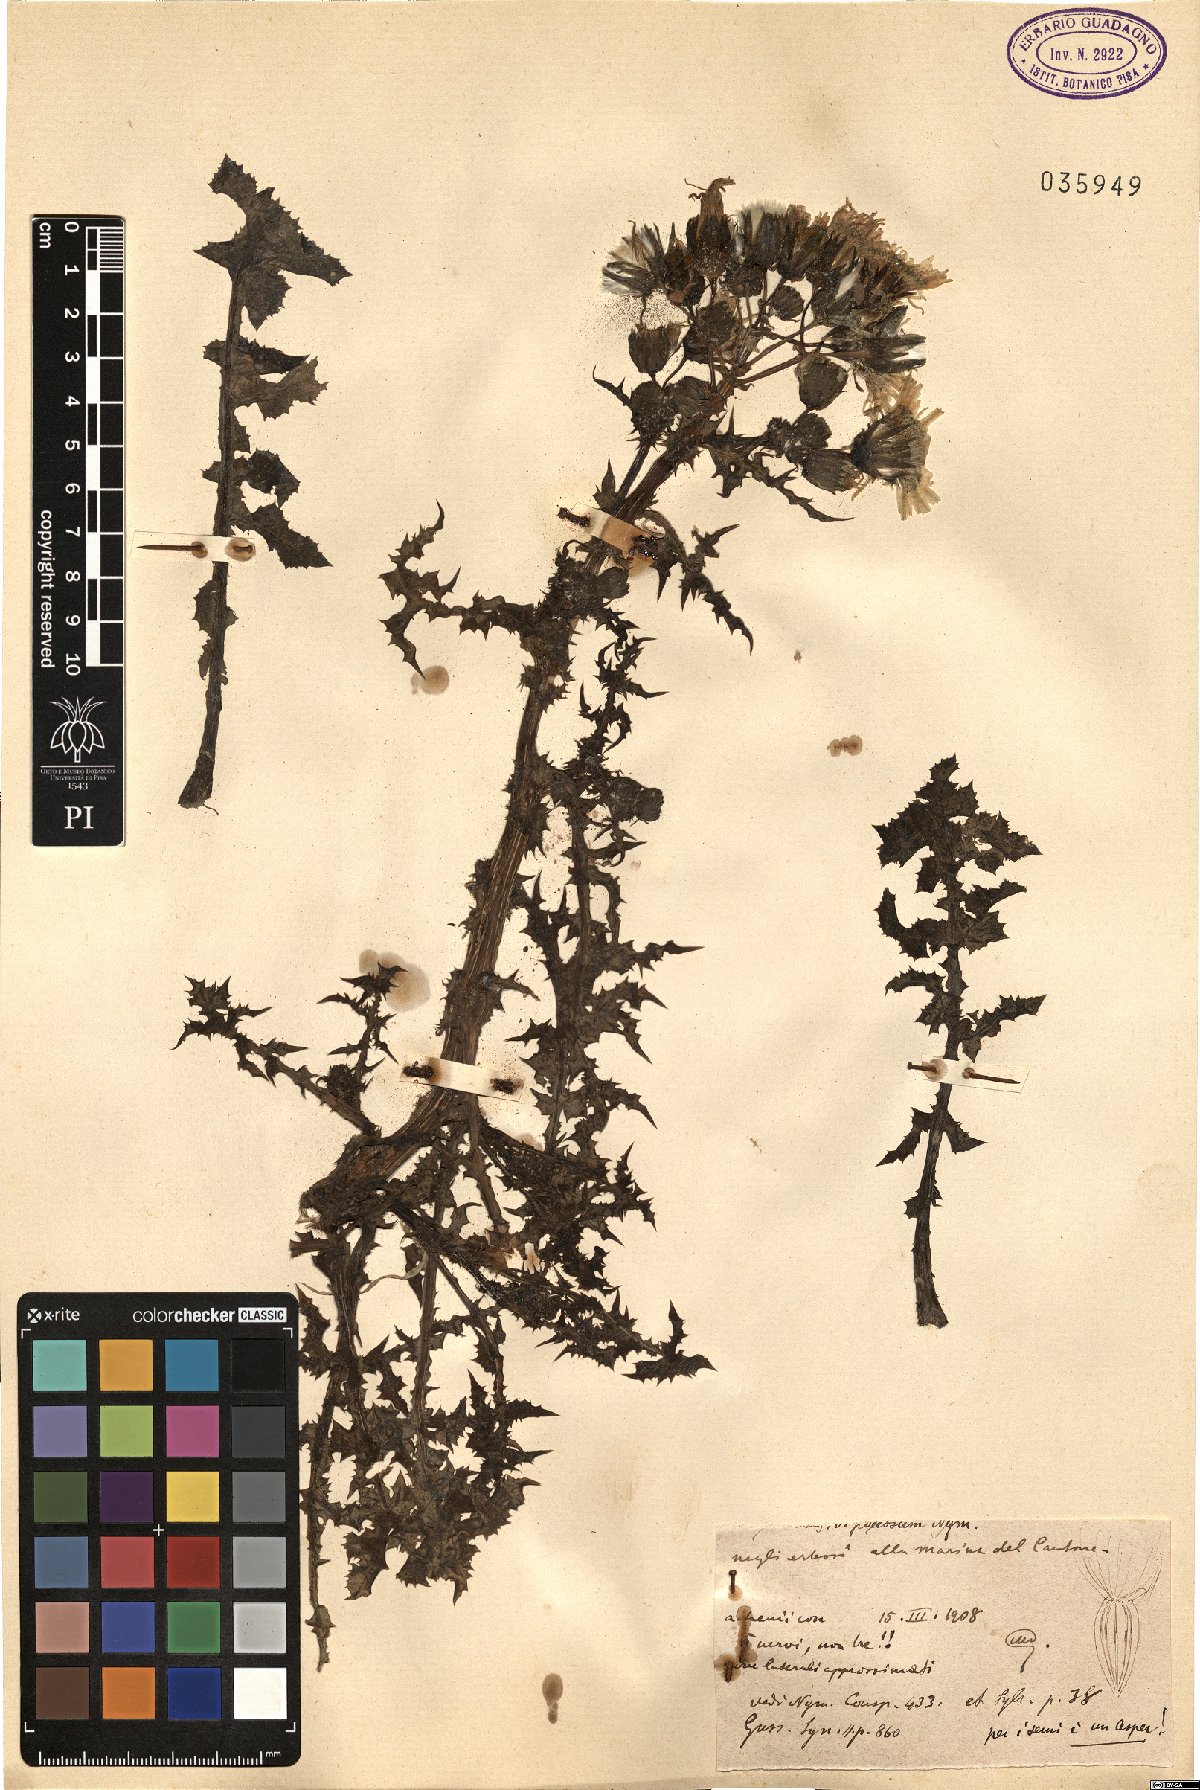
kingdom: Plantae
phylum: Tracheophyta
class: Magnoliopsida
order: Asterales
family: Asteraceae
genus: Sonchus
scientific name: Sonchus asper
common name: Prickly sow-thistle
